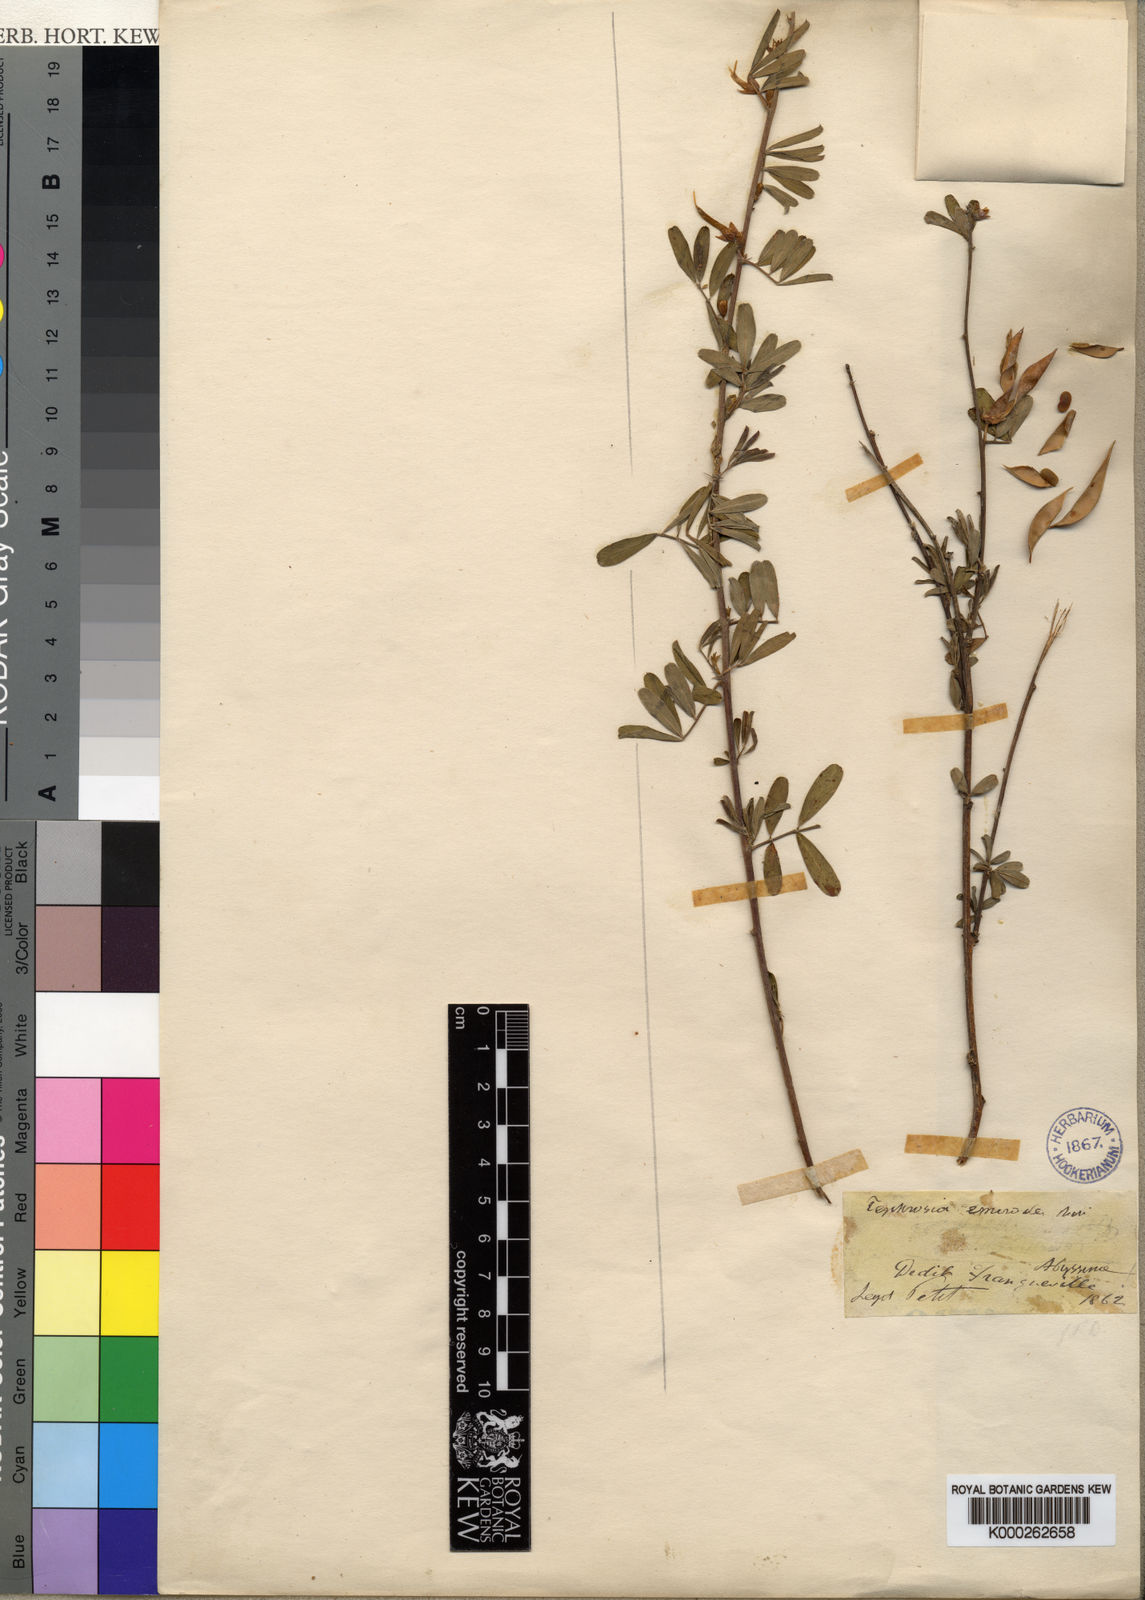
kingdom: Plantae
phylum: Tracheophyta
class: Magnoliopsida
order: Fabales
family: Fabaceae
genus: Tephrosia
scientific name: Tephrosia emeroides
